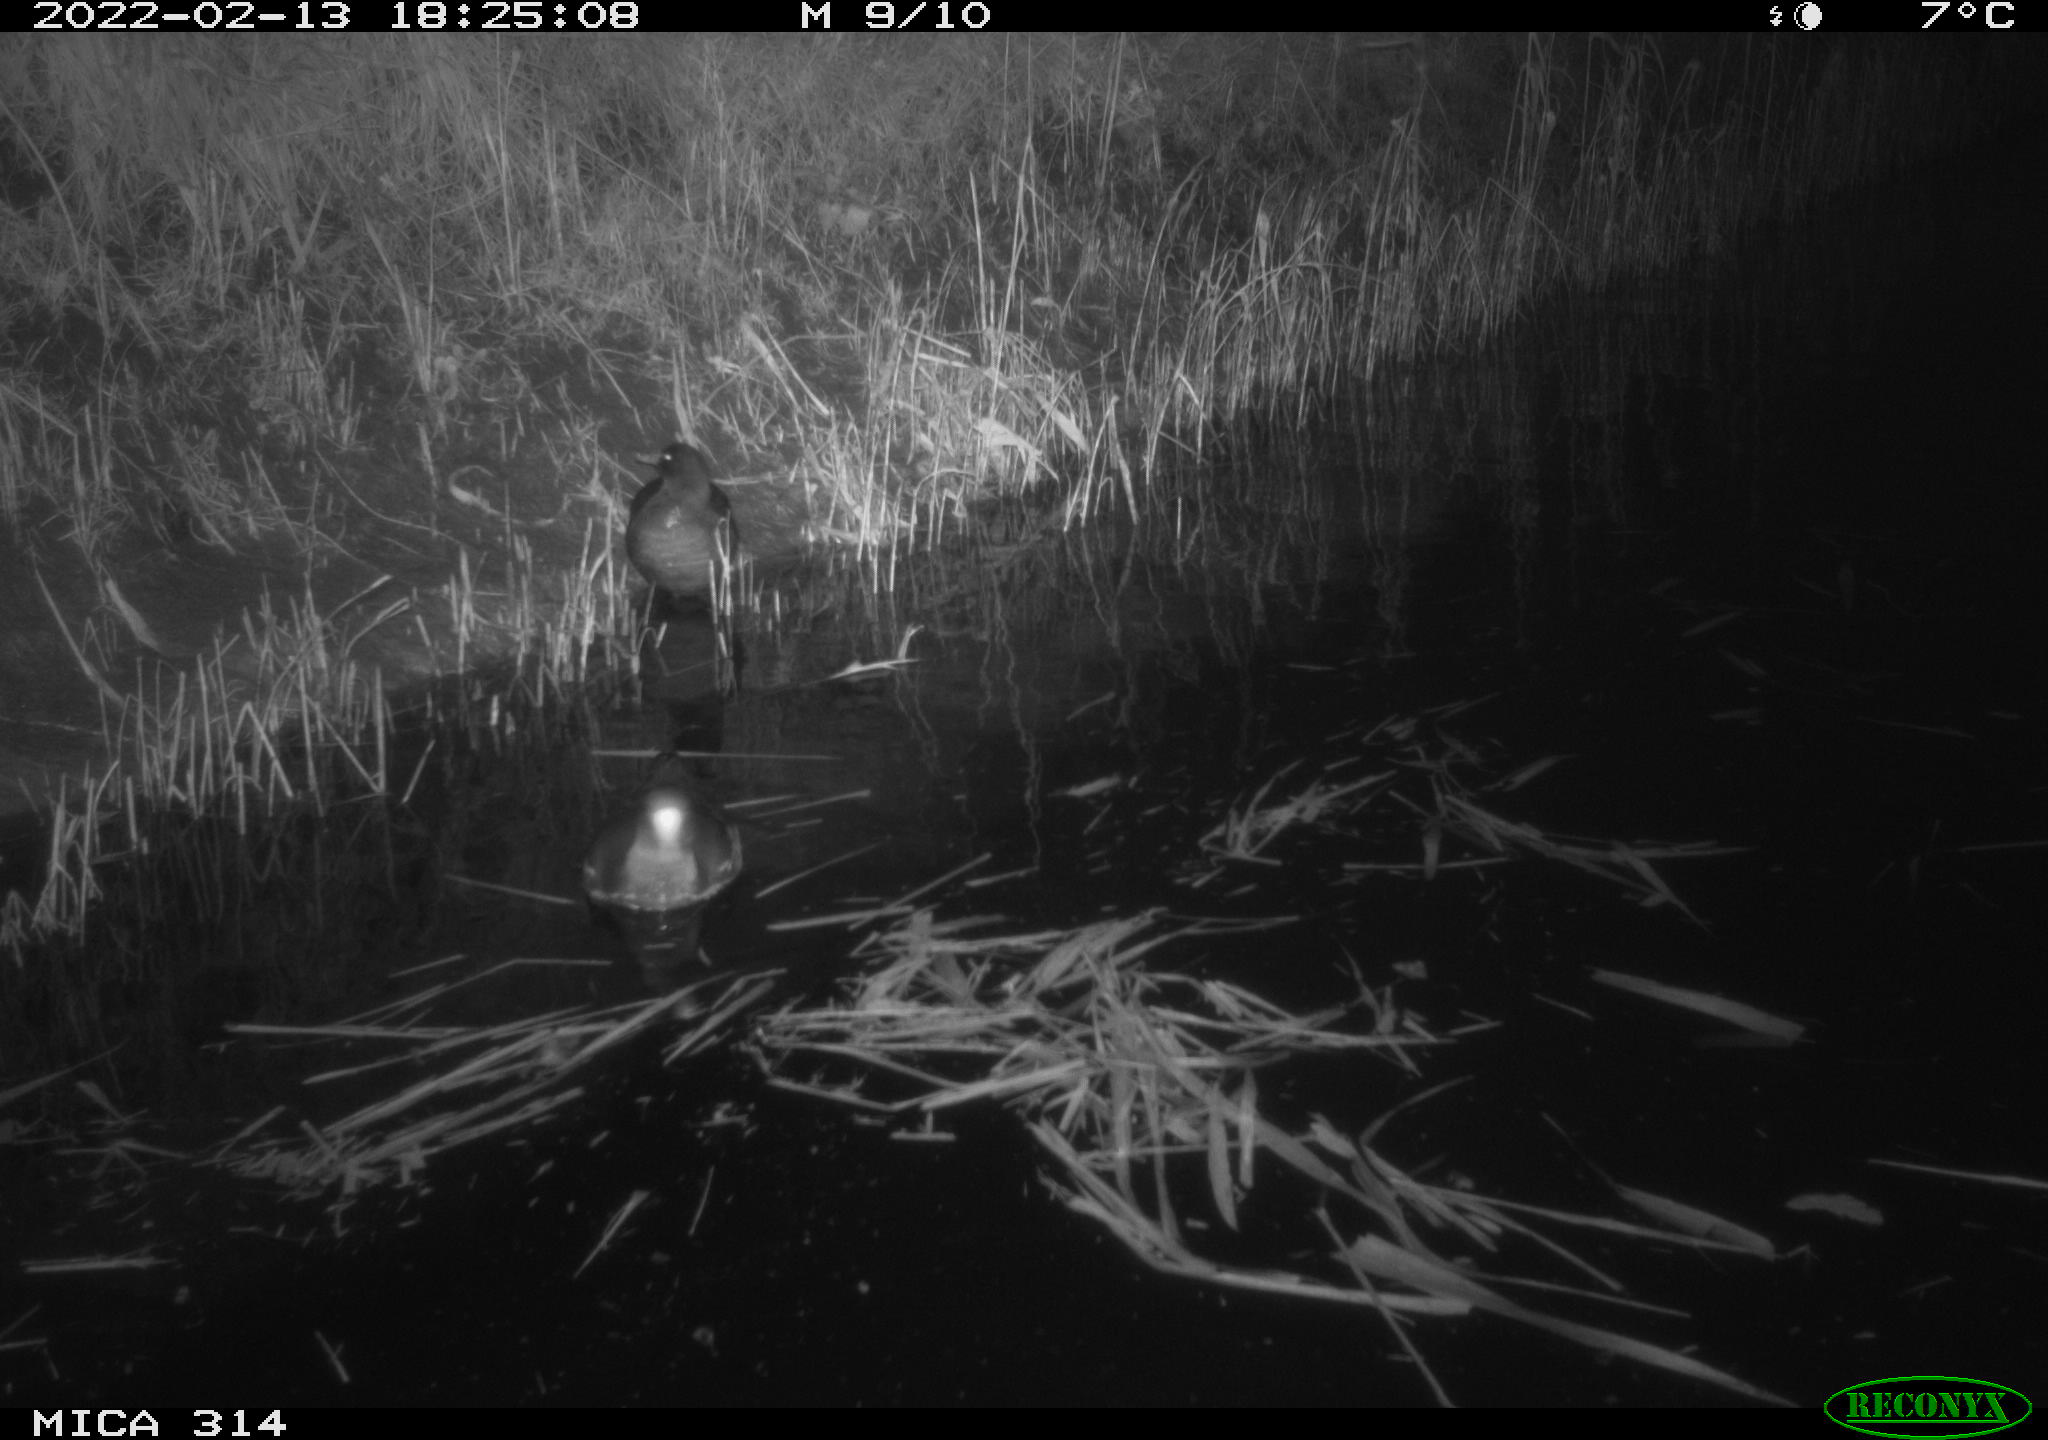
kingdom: Animalia
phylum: Chordata
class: Aves
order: Gruiformes
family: Rallidae
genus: Gallinula
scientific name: Gallinula chloropus
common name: Common moorhen
